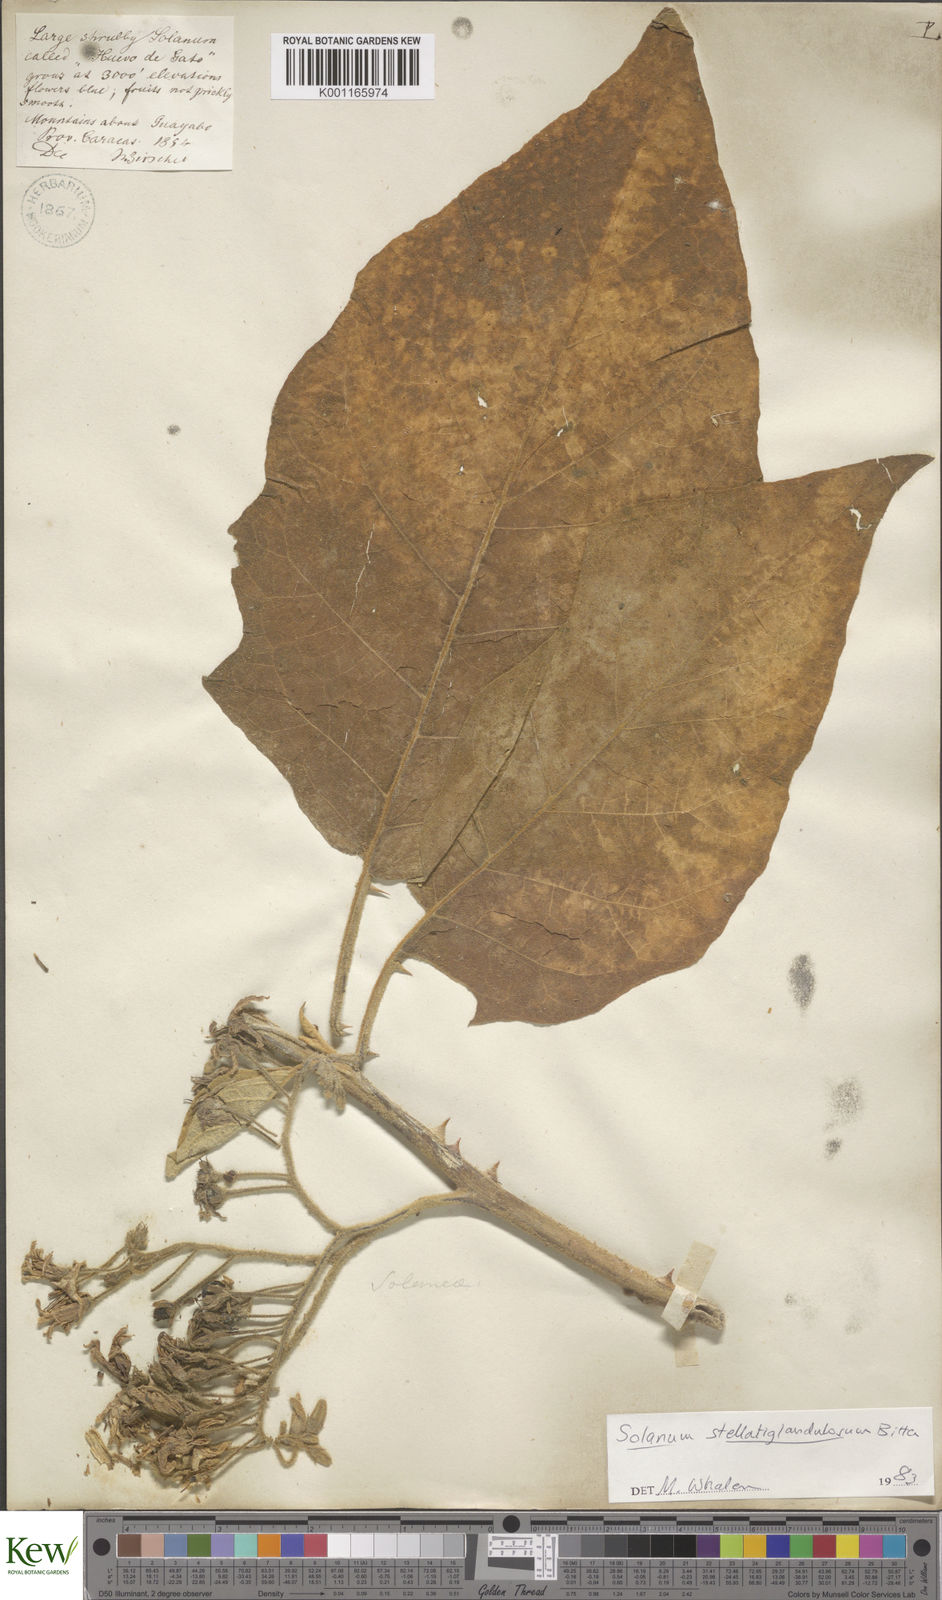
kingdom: Plantae
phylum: Tracheophyta
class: Magnoliopsida
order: Solanales
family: Solanaceae
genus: Solanum
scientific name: Solanum stellatiglandulosum
